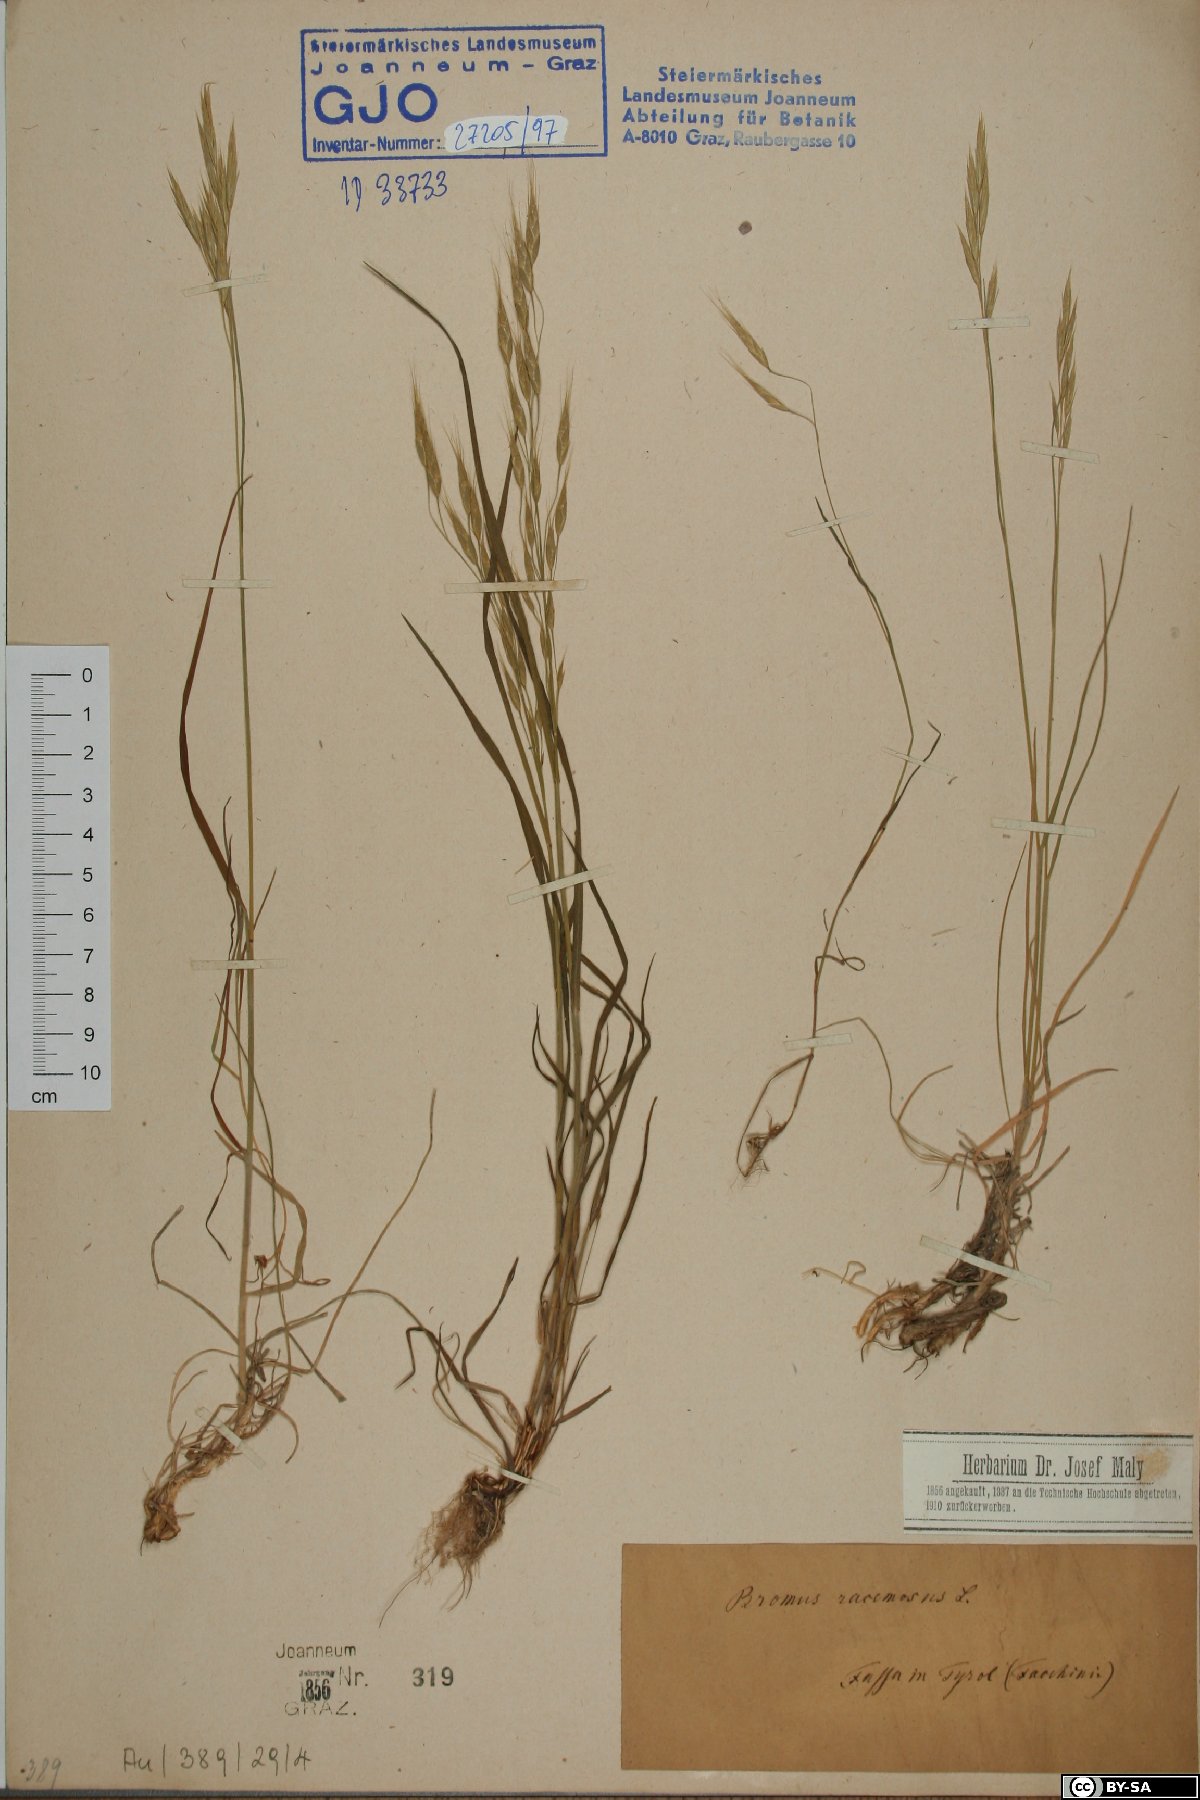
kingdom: Plantae
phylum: Tracheophyta
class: Liliopsida
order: Poales
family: Poaceae
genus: Bromus
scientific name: Bromus racemosus
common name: Bald brome
